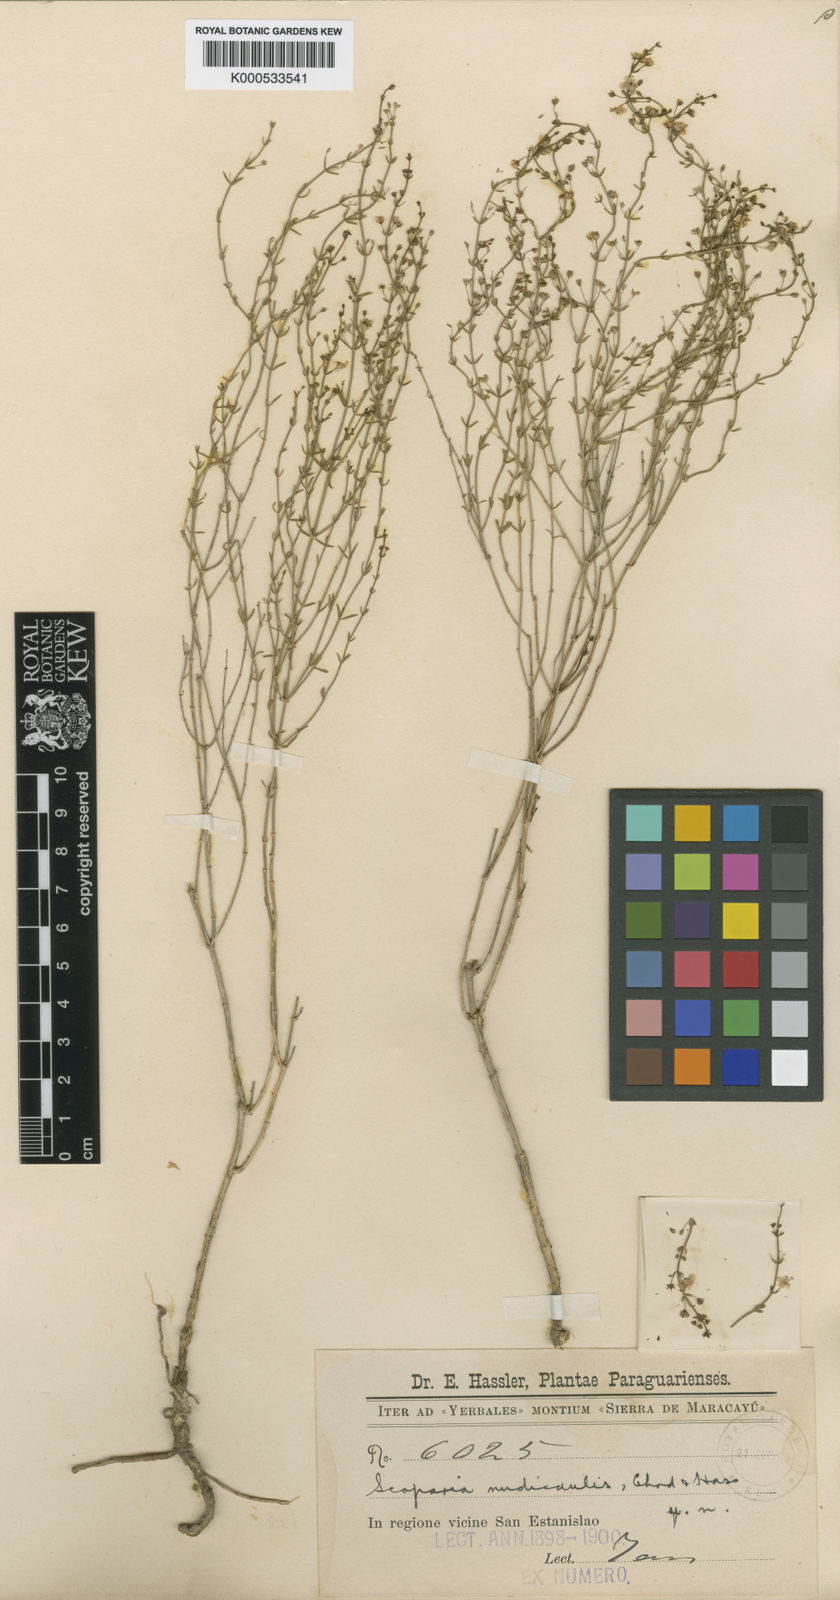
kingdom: Plantae
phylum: Tracheophyta
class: Magnoliopsida
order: Lamiales
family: Plantaginaceae
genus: Scoparia
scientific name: Scoparia dulcis
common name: Scoparia-weed
